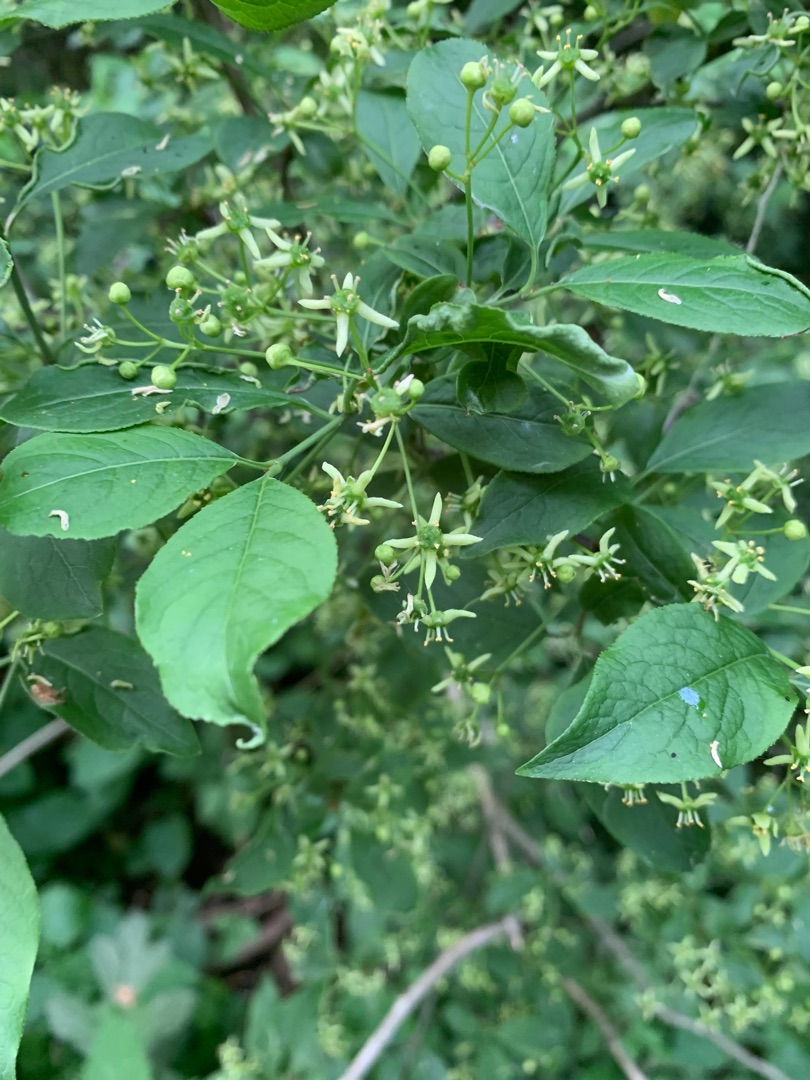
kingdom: Plantae
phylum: Tracheophyta
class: Magnoliopsida
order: Celastrales
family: Celastraceae
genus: Euonymus
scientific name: Euonymus europaeus
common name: Benved
